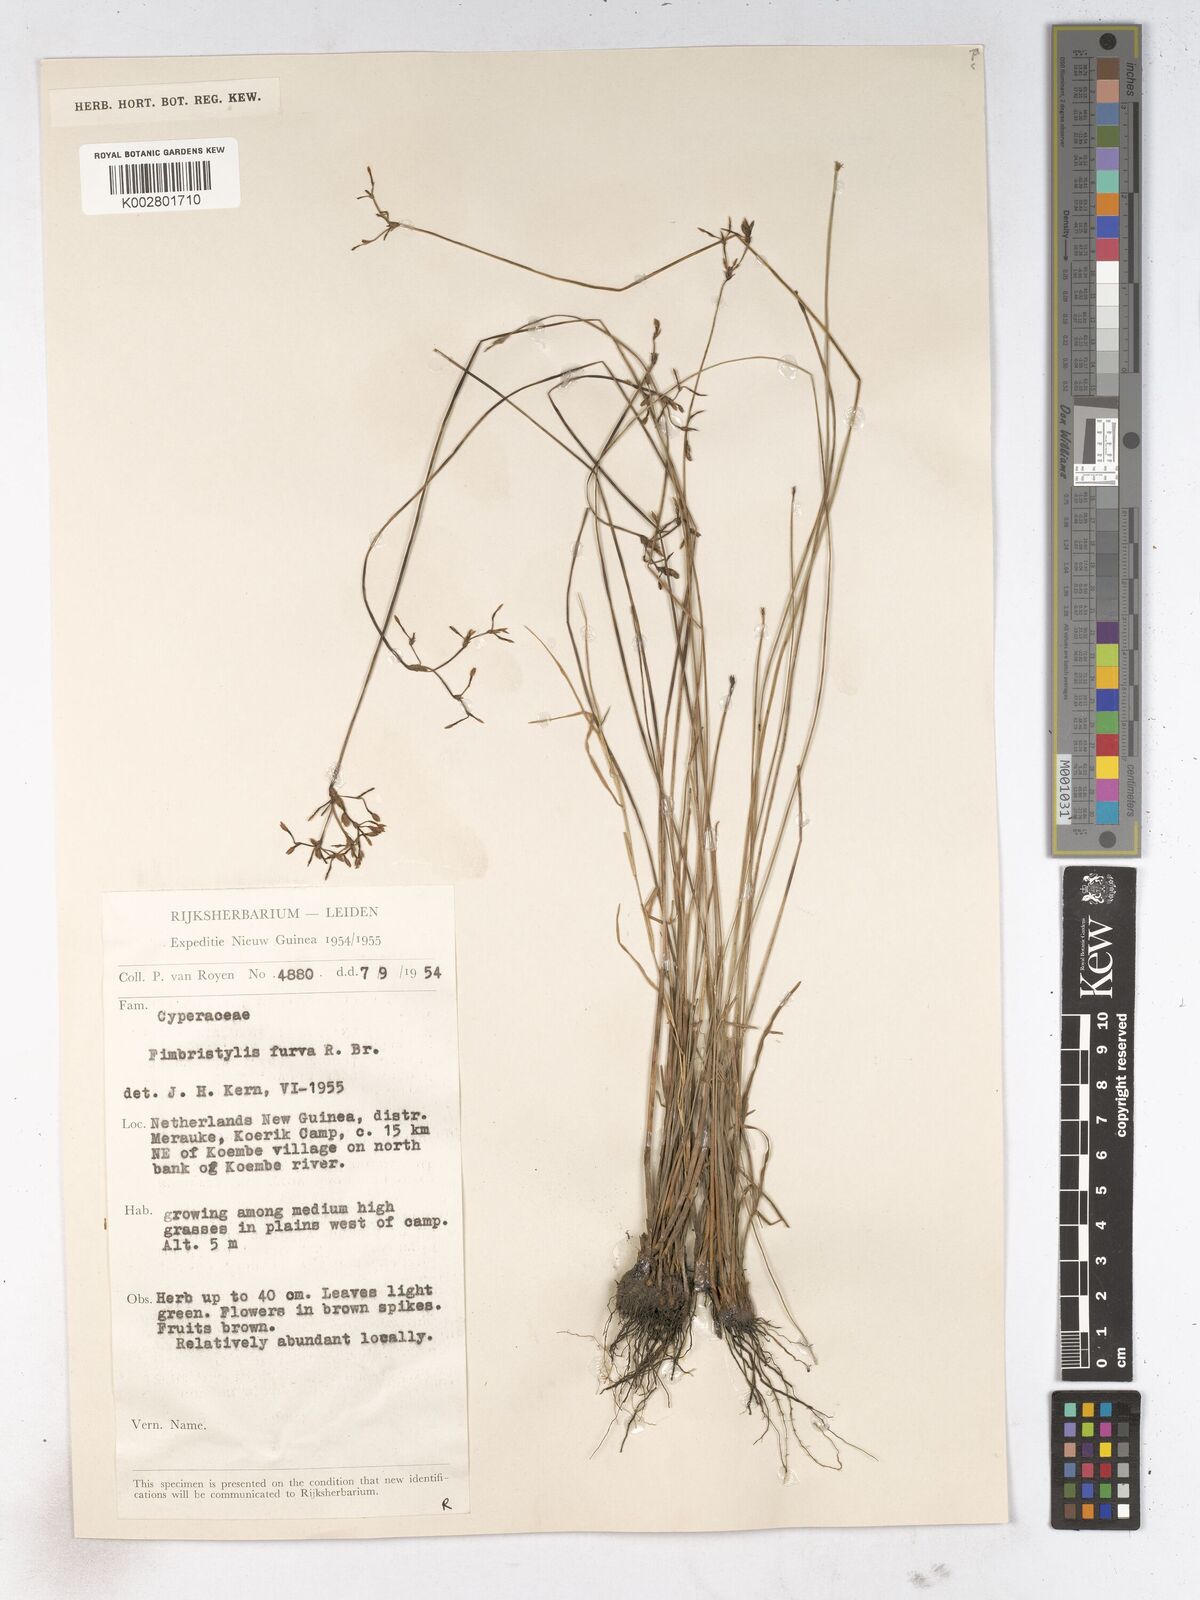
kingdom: Plantae
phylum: Tracheophyta
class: Liliopsida
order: Poales
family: Cyperaceae
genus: Fimbristylis
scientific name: Fimbristylis furva
